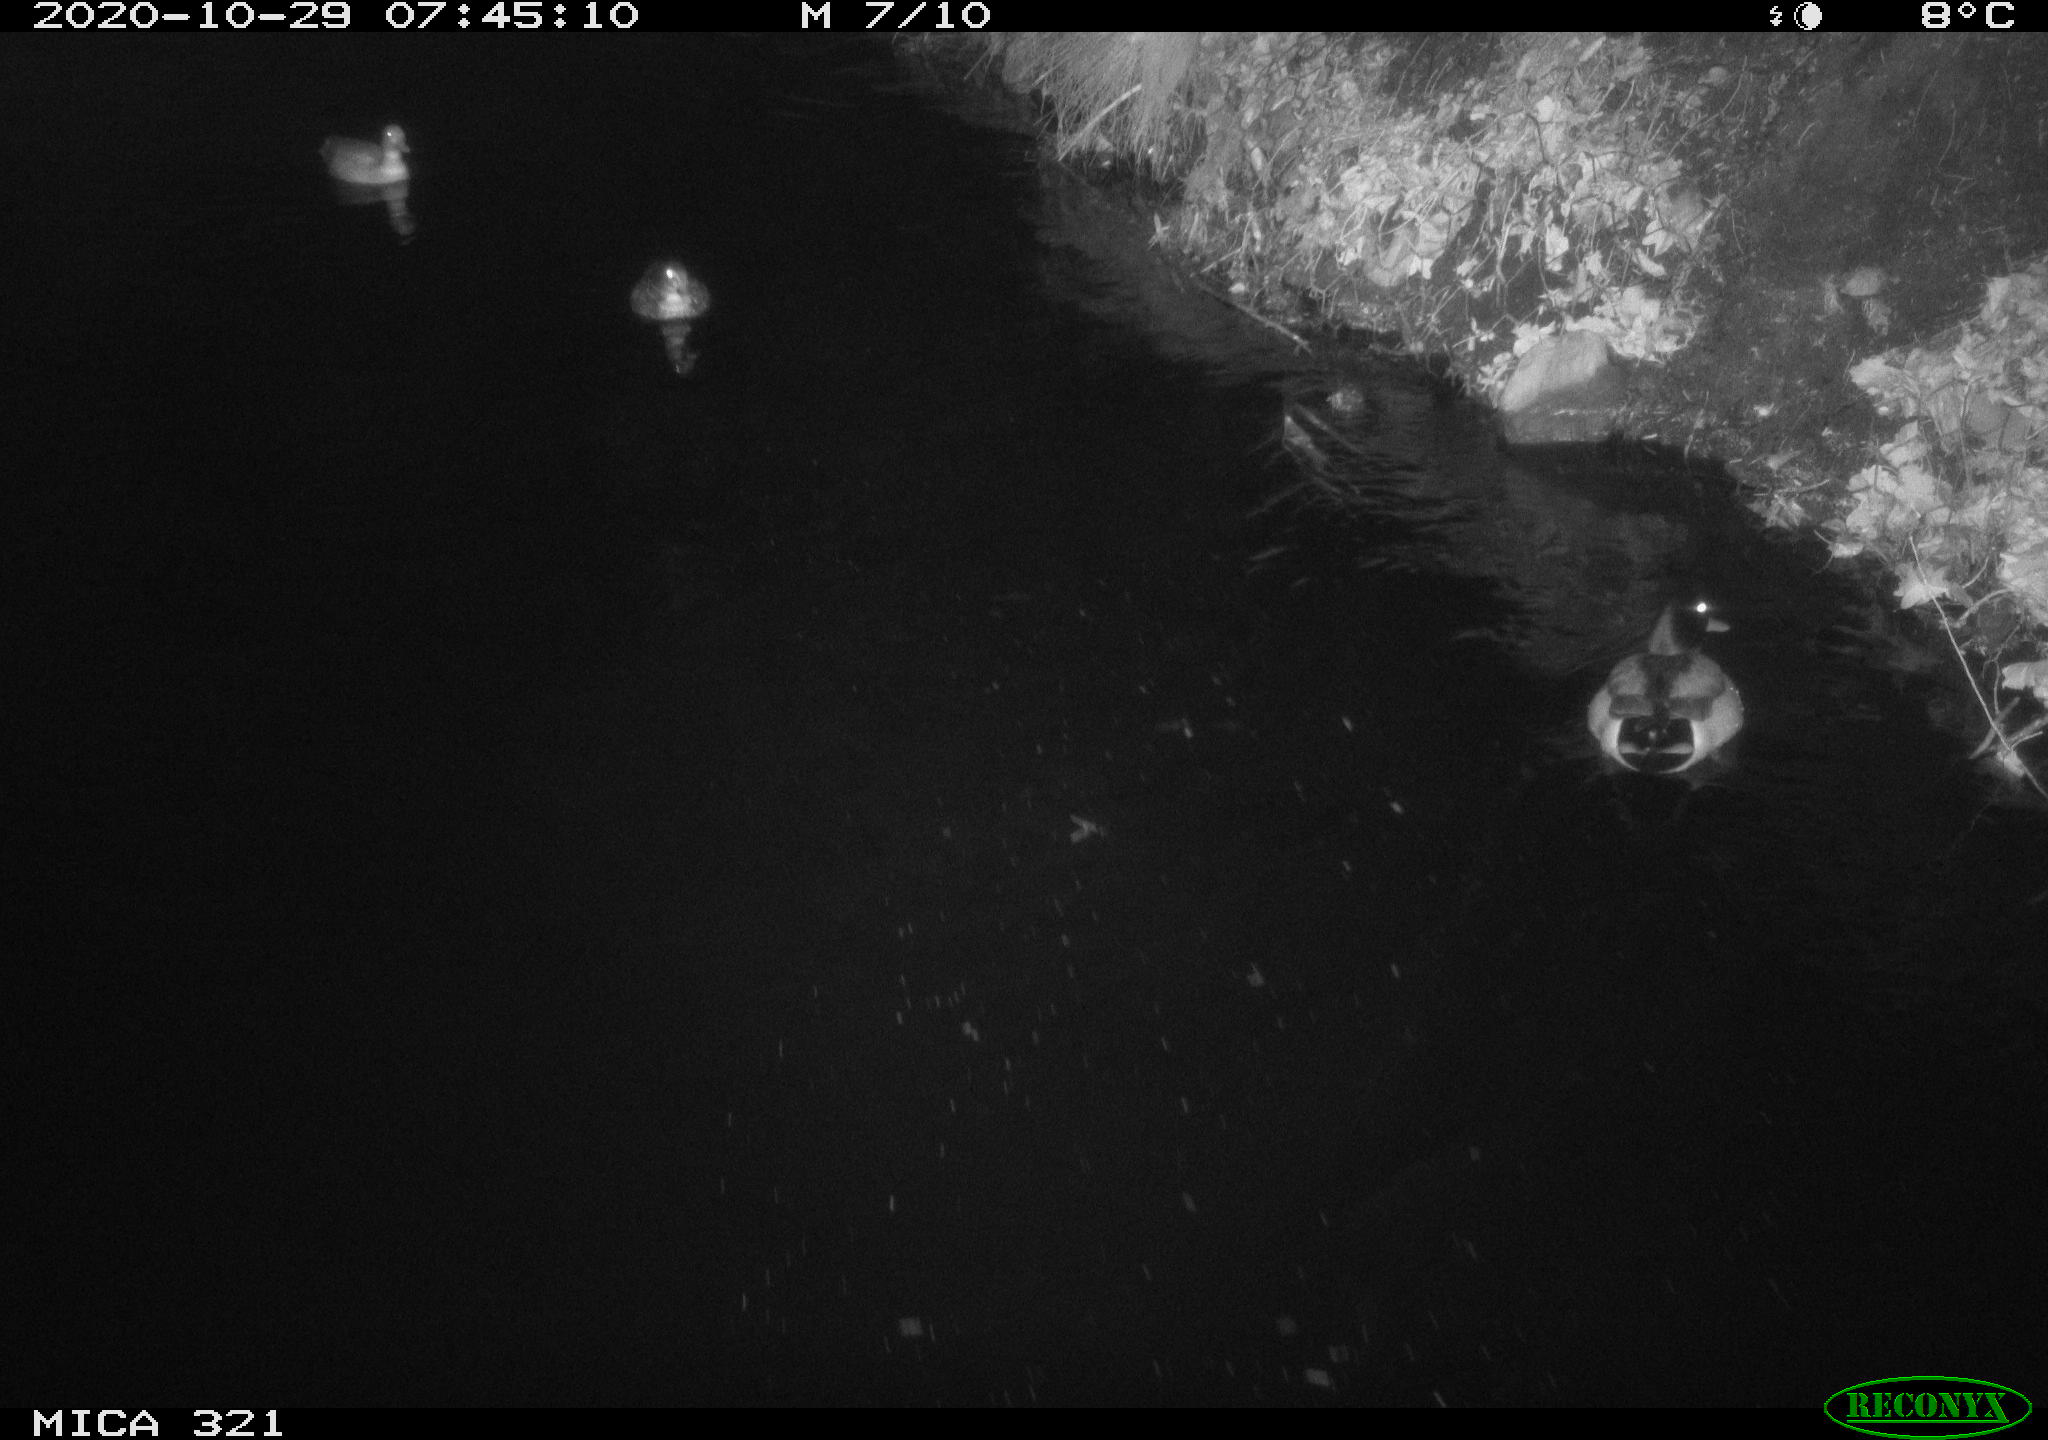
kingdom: Animalia
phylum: Chordata
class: Aves
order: Anseriformes
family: Anatidae
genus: Anas
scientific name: Anas platyrhynchos
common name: Mallard
